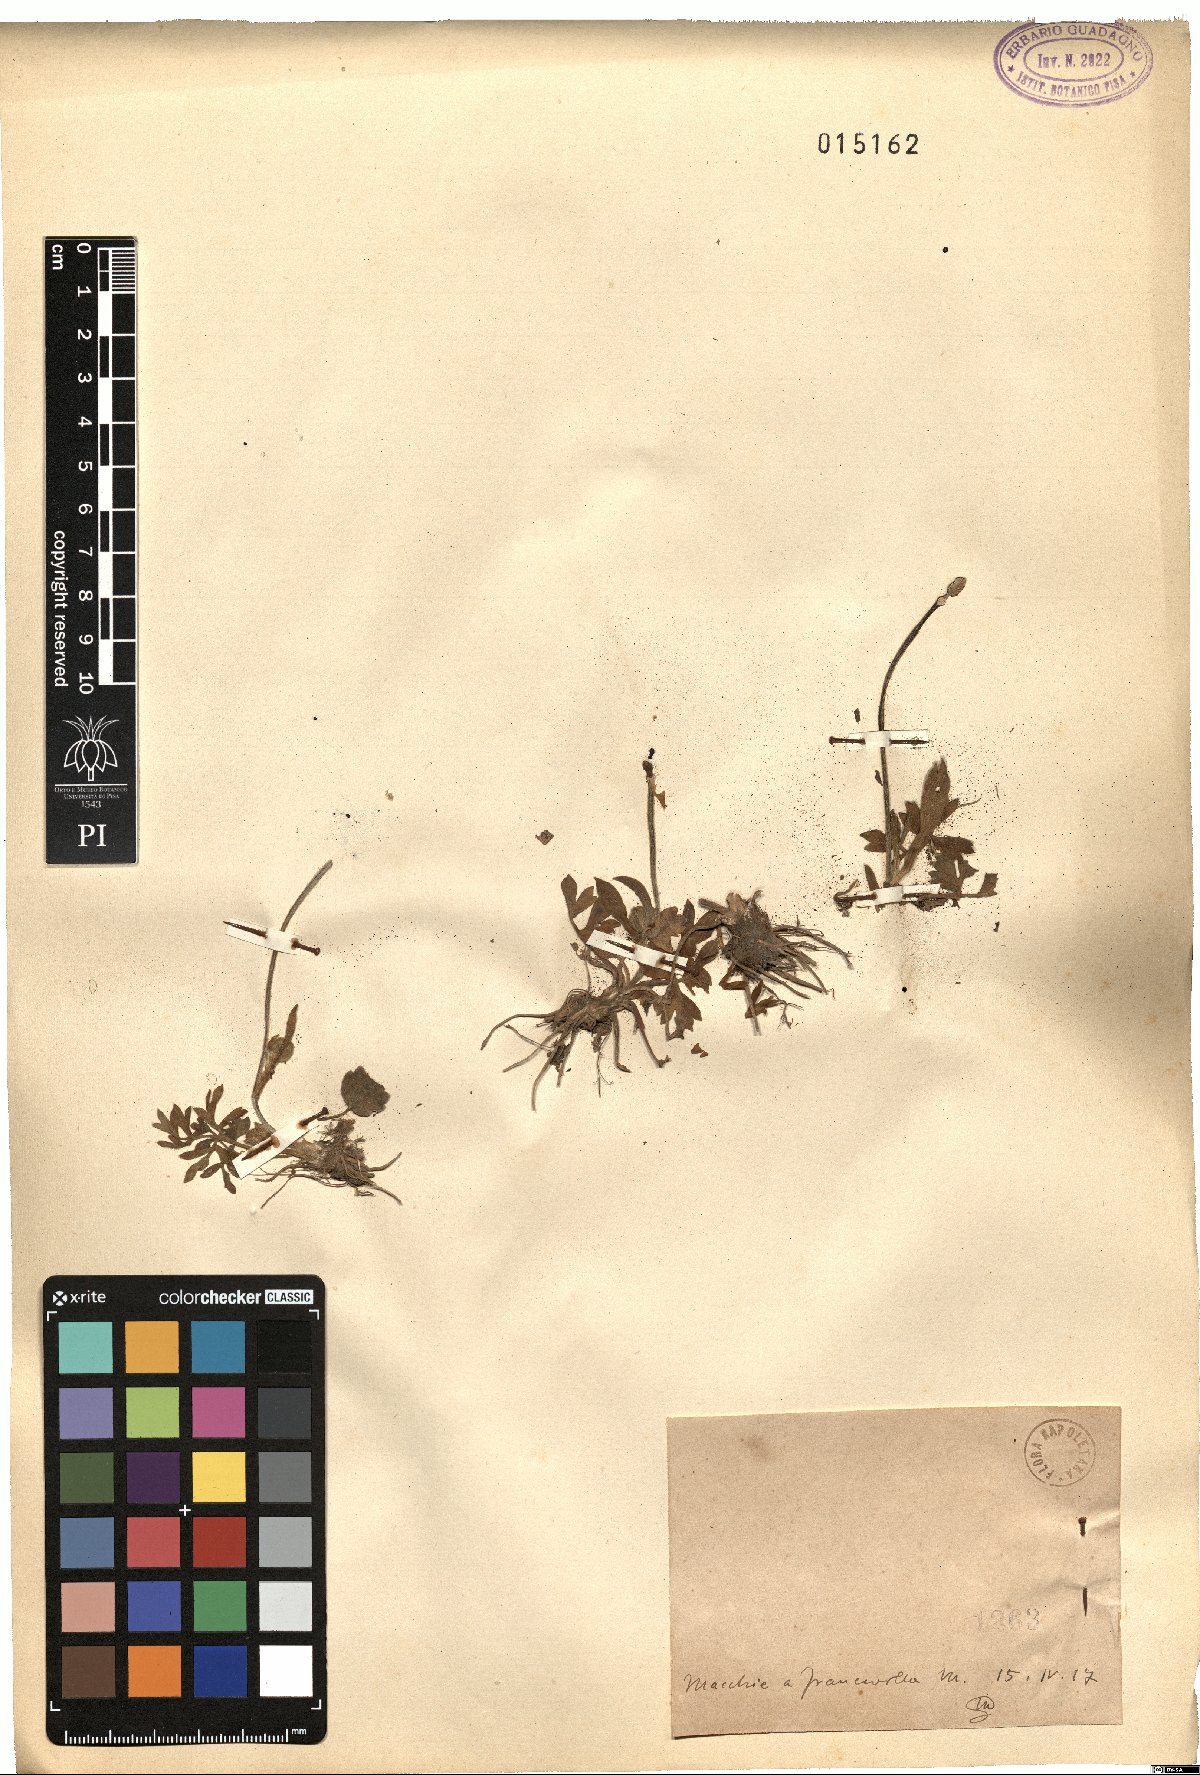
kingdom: Plantae
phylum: Tracheophyta
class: Magnoliopsida
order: Ranunculales
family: Ranunculaceae
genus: Ranunculus
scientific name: Ranunculus
